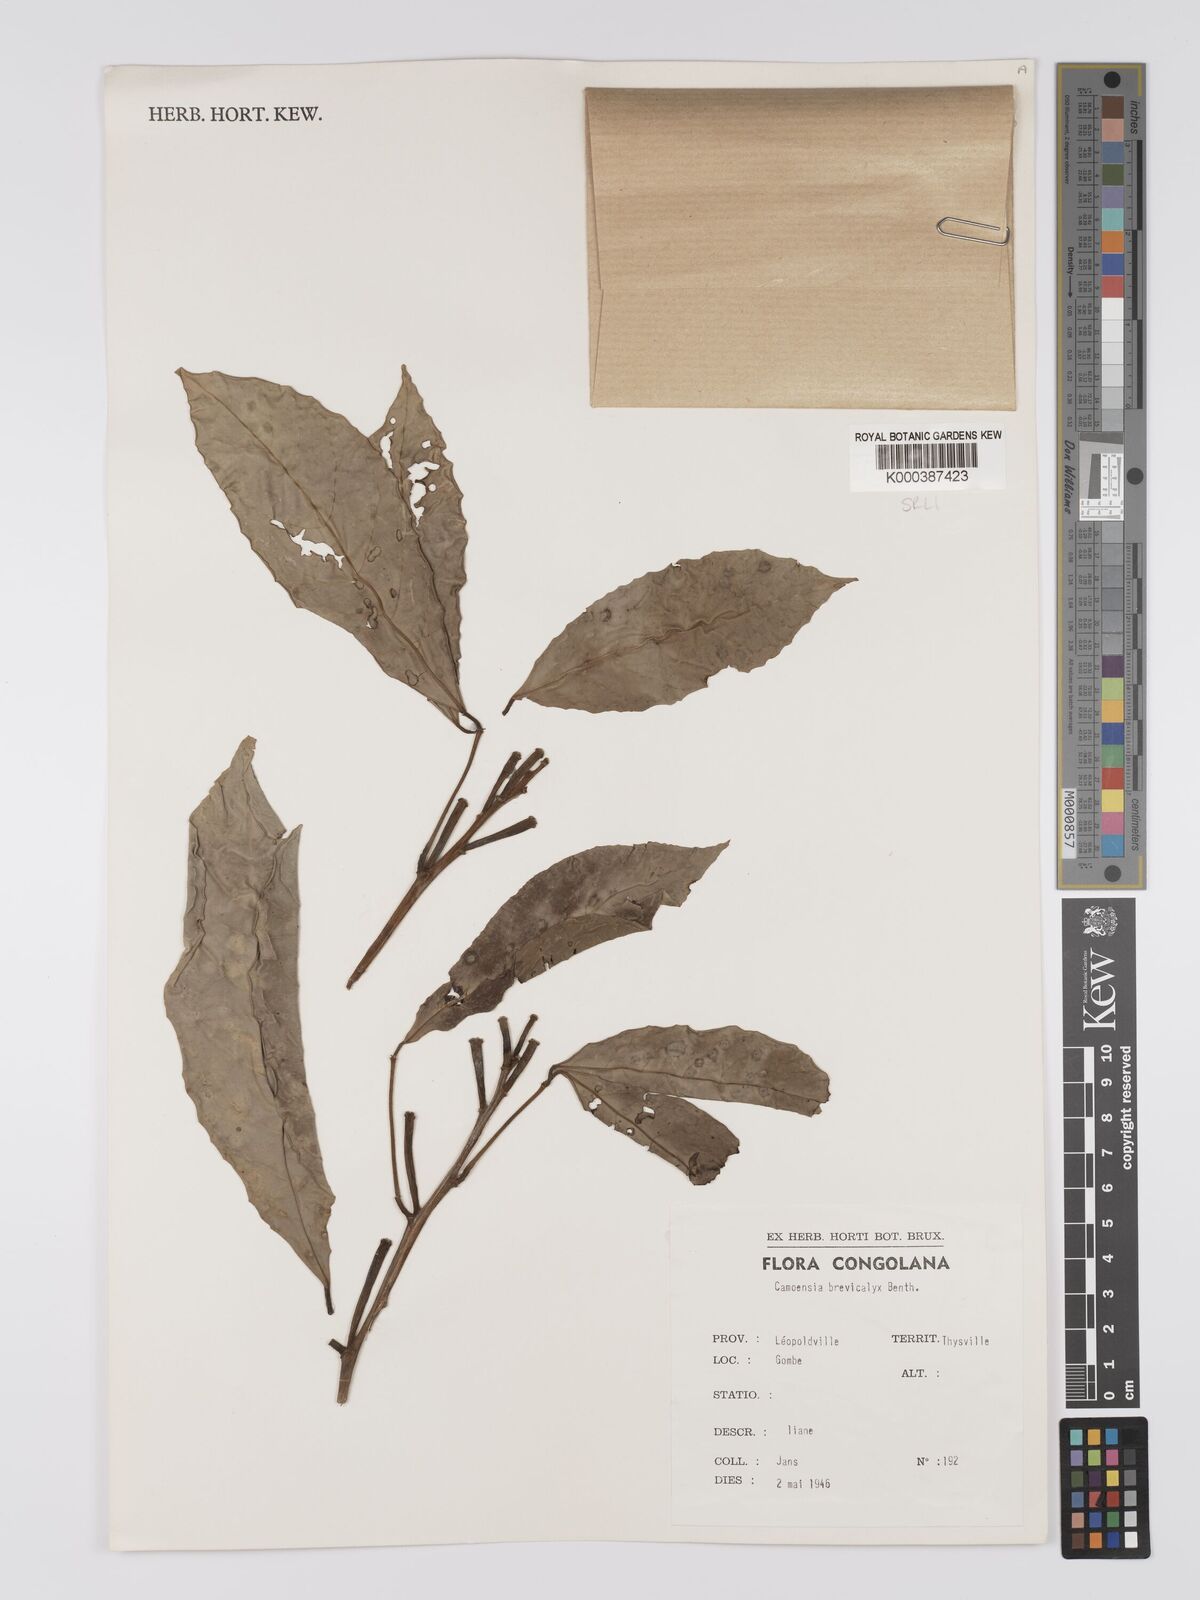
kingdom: Plantae
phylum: Tracheophyta
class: Magnoliopsida
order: Fabales
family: Fabaceae
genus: Camoensia
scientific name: Camoensia brevicalyx
